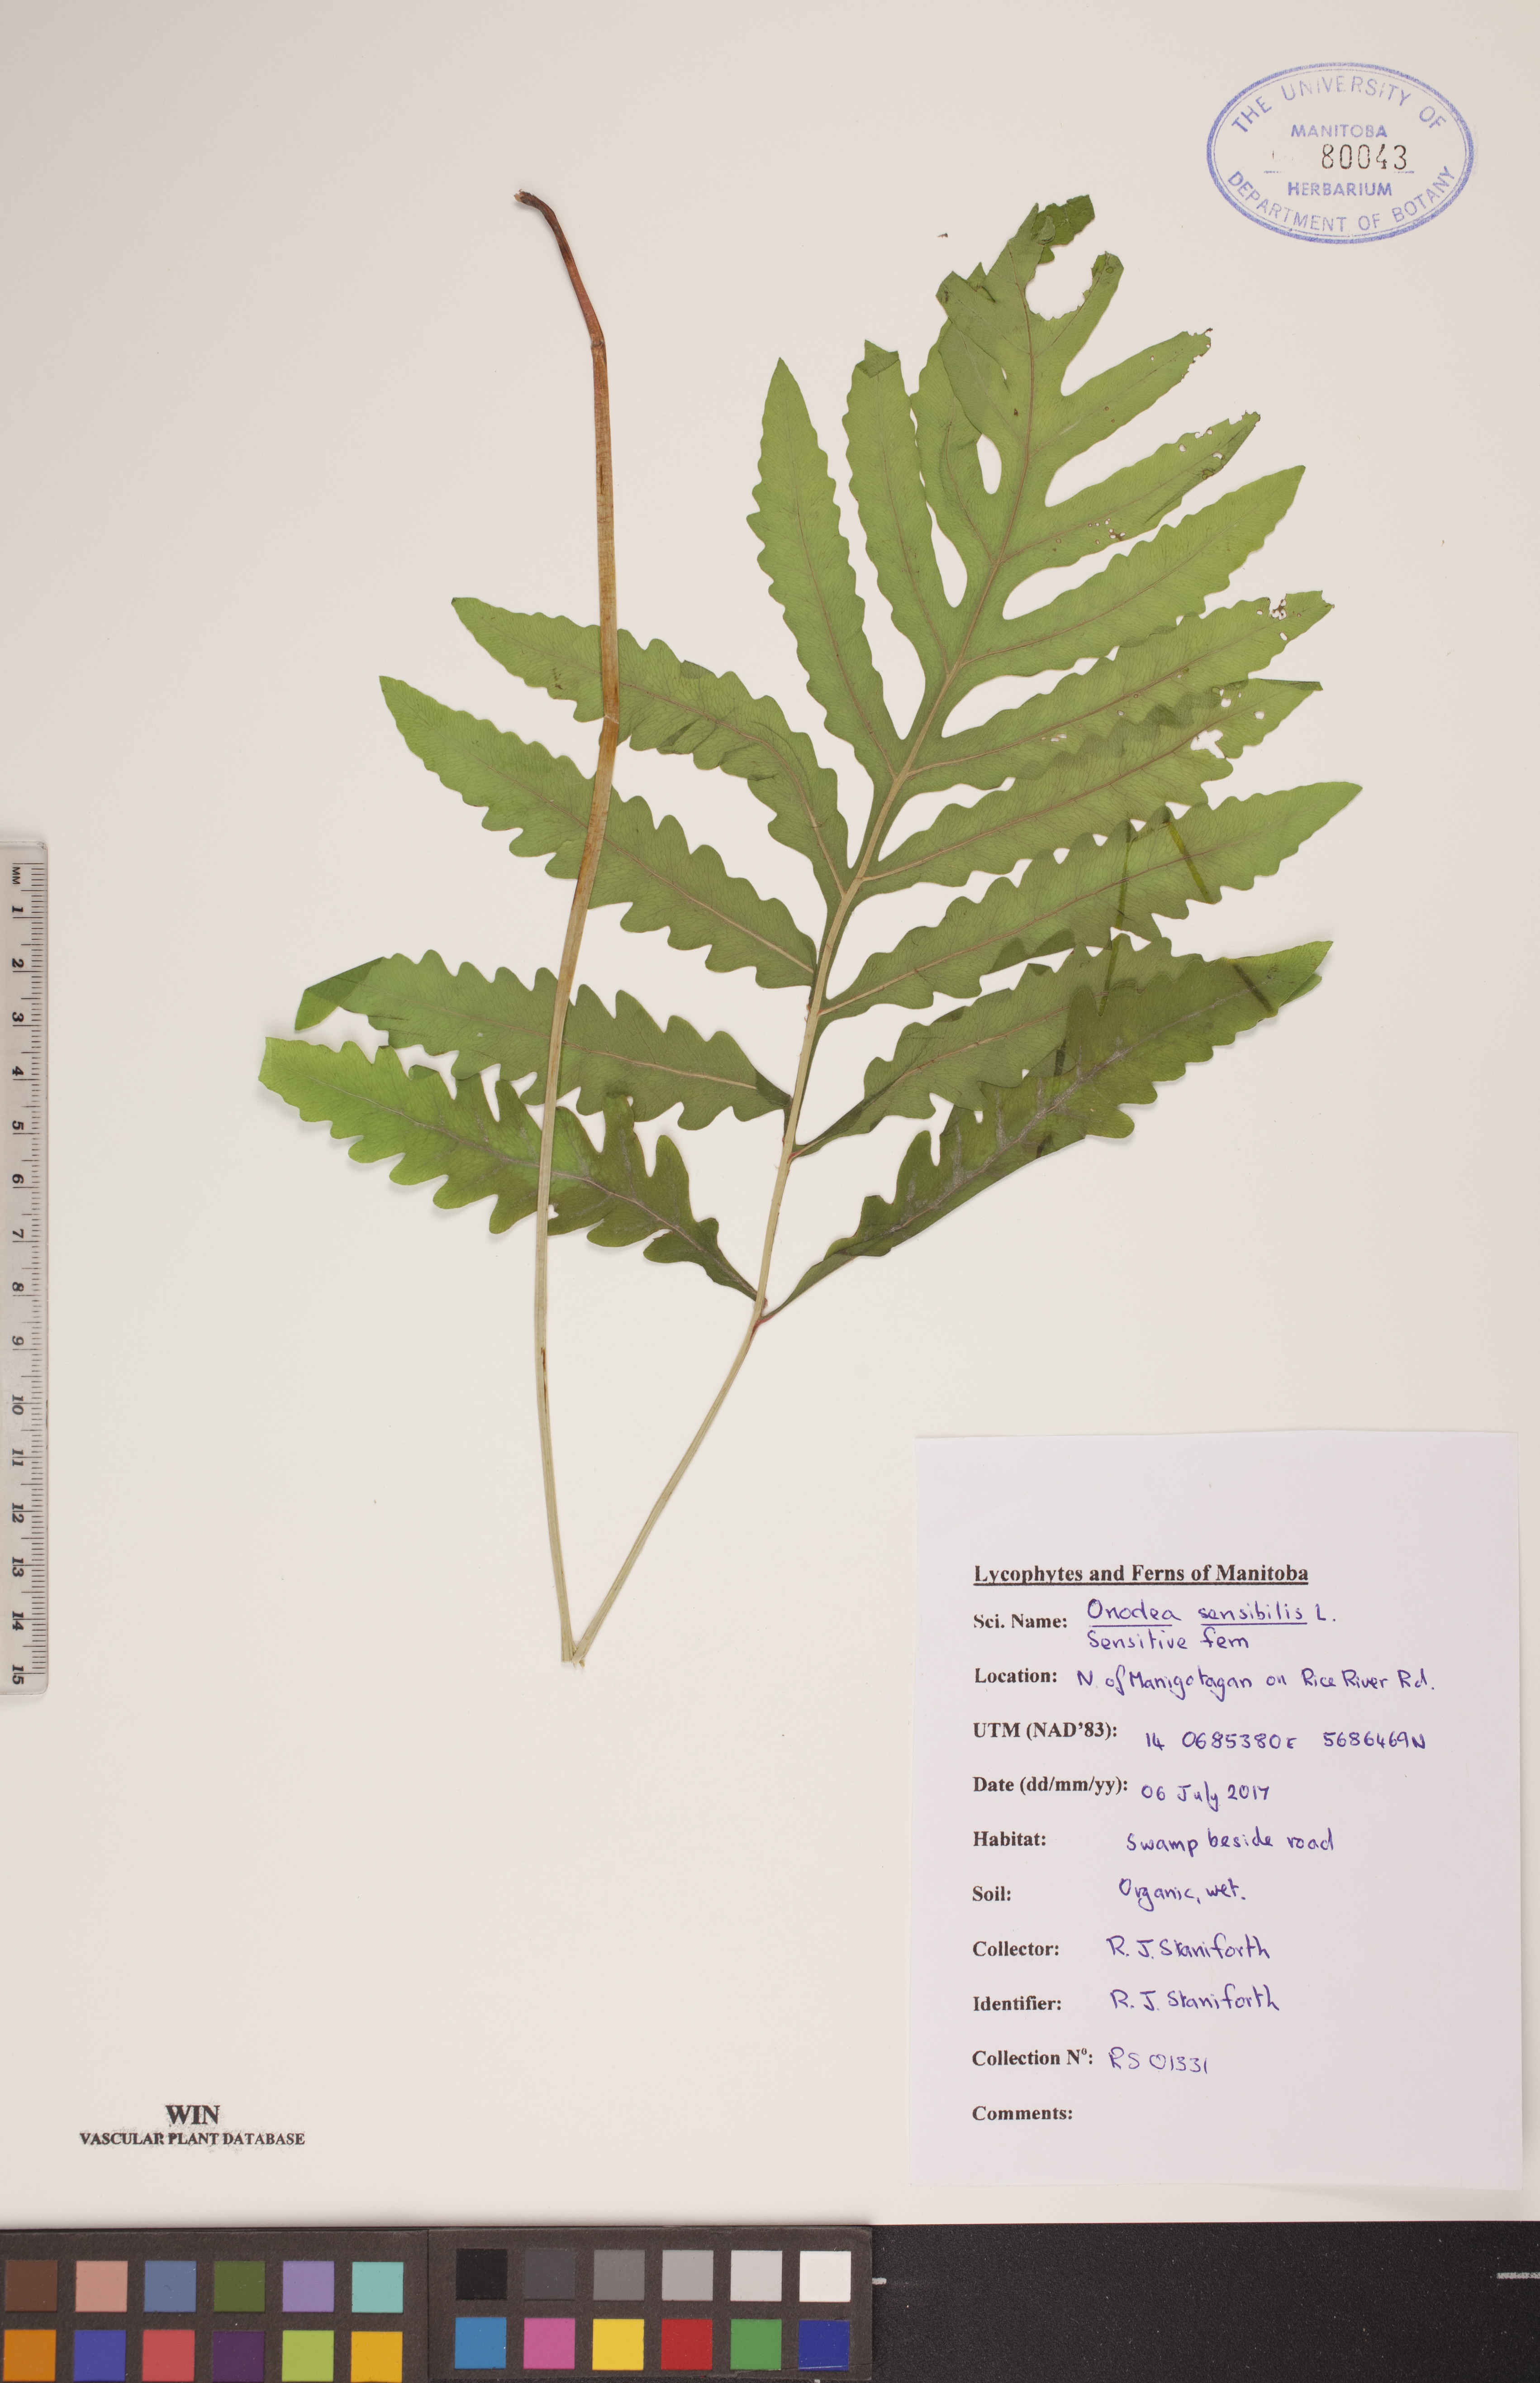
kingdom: Plantae
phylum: Tracheophyta
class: Polypodiopsida
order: Polypodiales
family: Onocleaceae
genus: Onoclea
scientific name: Onoclea sensibilis
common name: Sensitive fern
